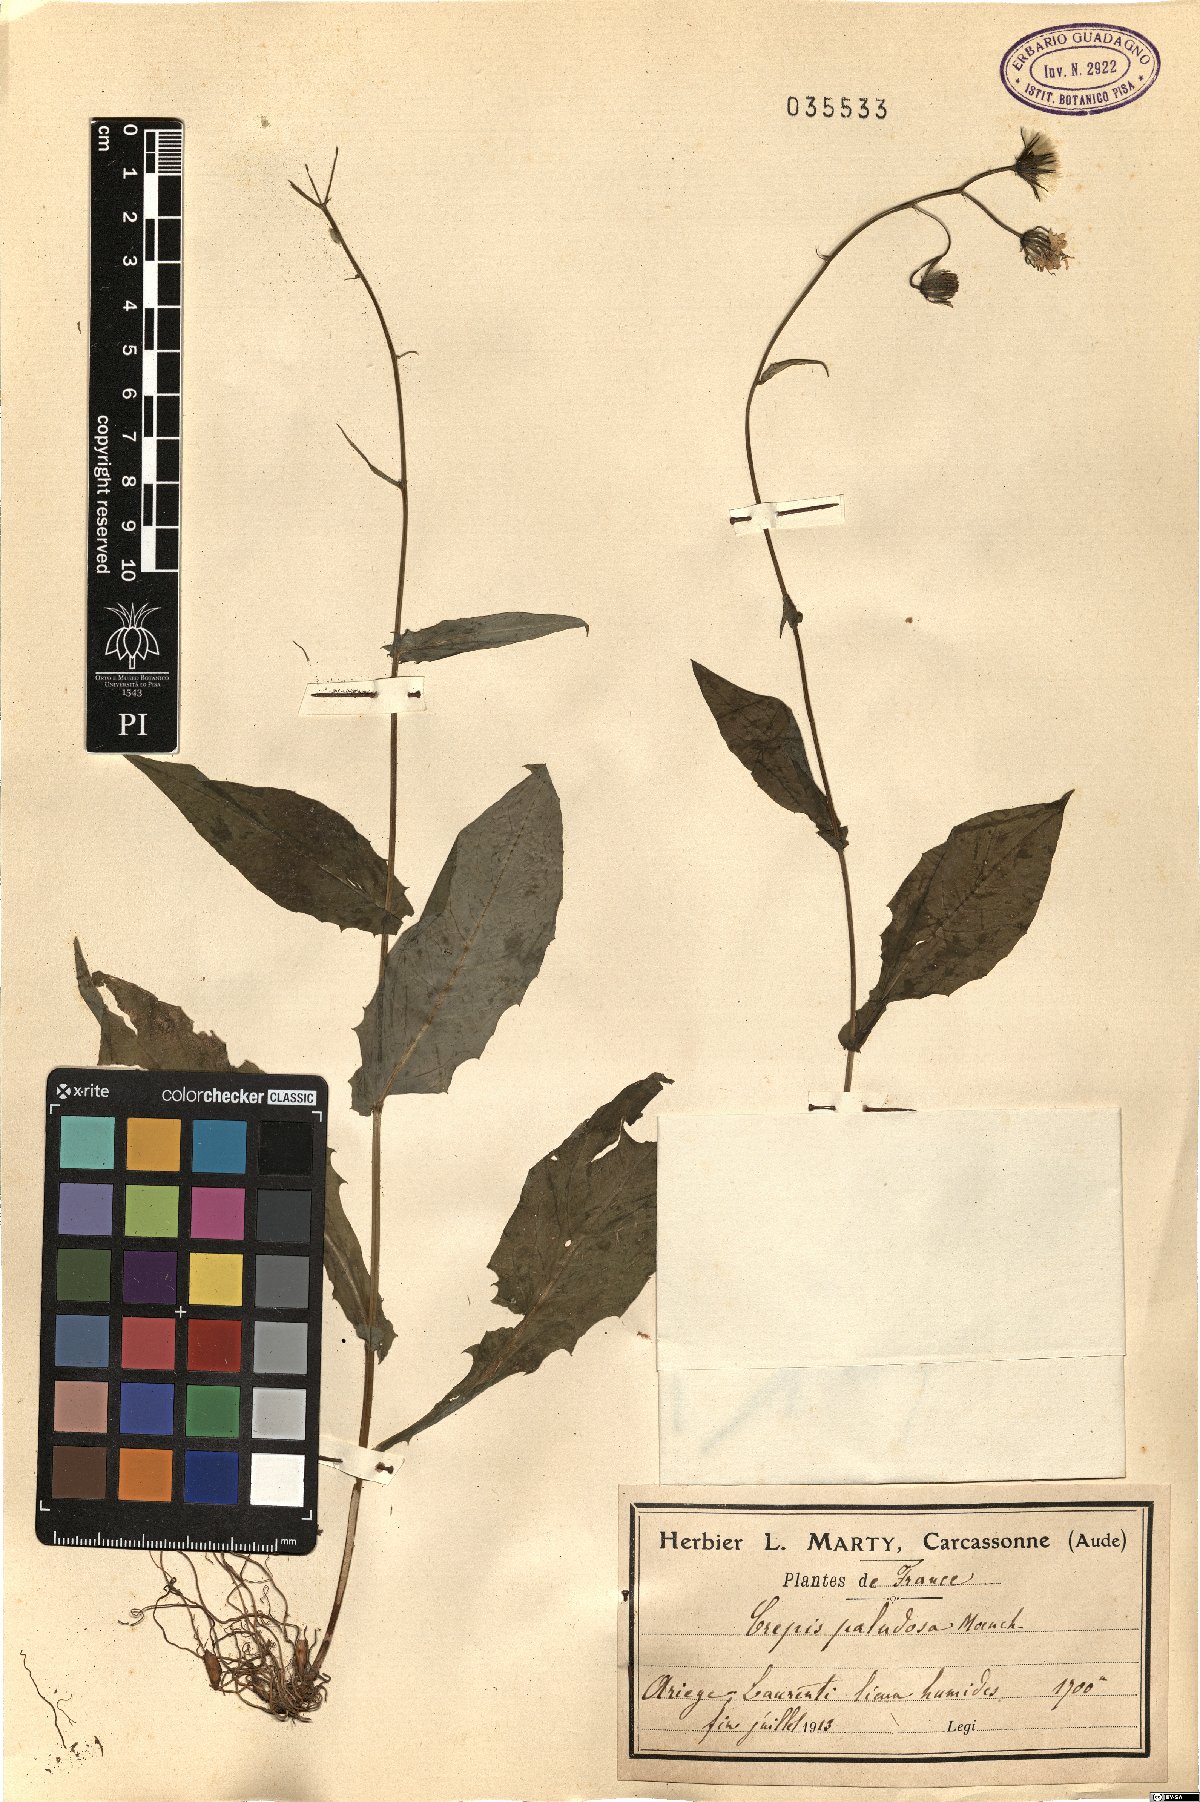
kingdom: Plantae
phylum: Tracheophyta
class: Magnoliopsida
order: Asterales
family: Asteraceae
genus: Crepis
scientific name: Crepis paludosa
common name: Marsh hawk's-beard
